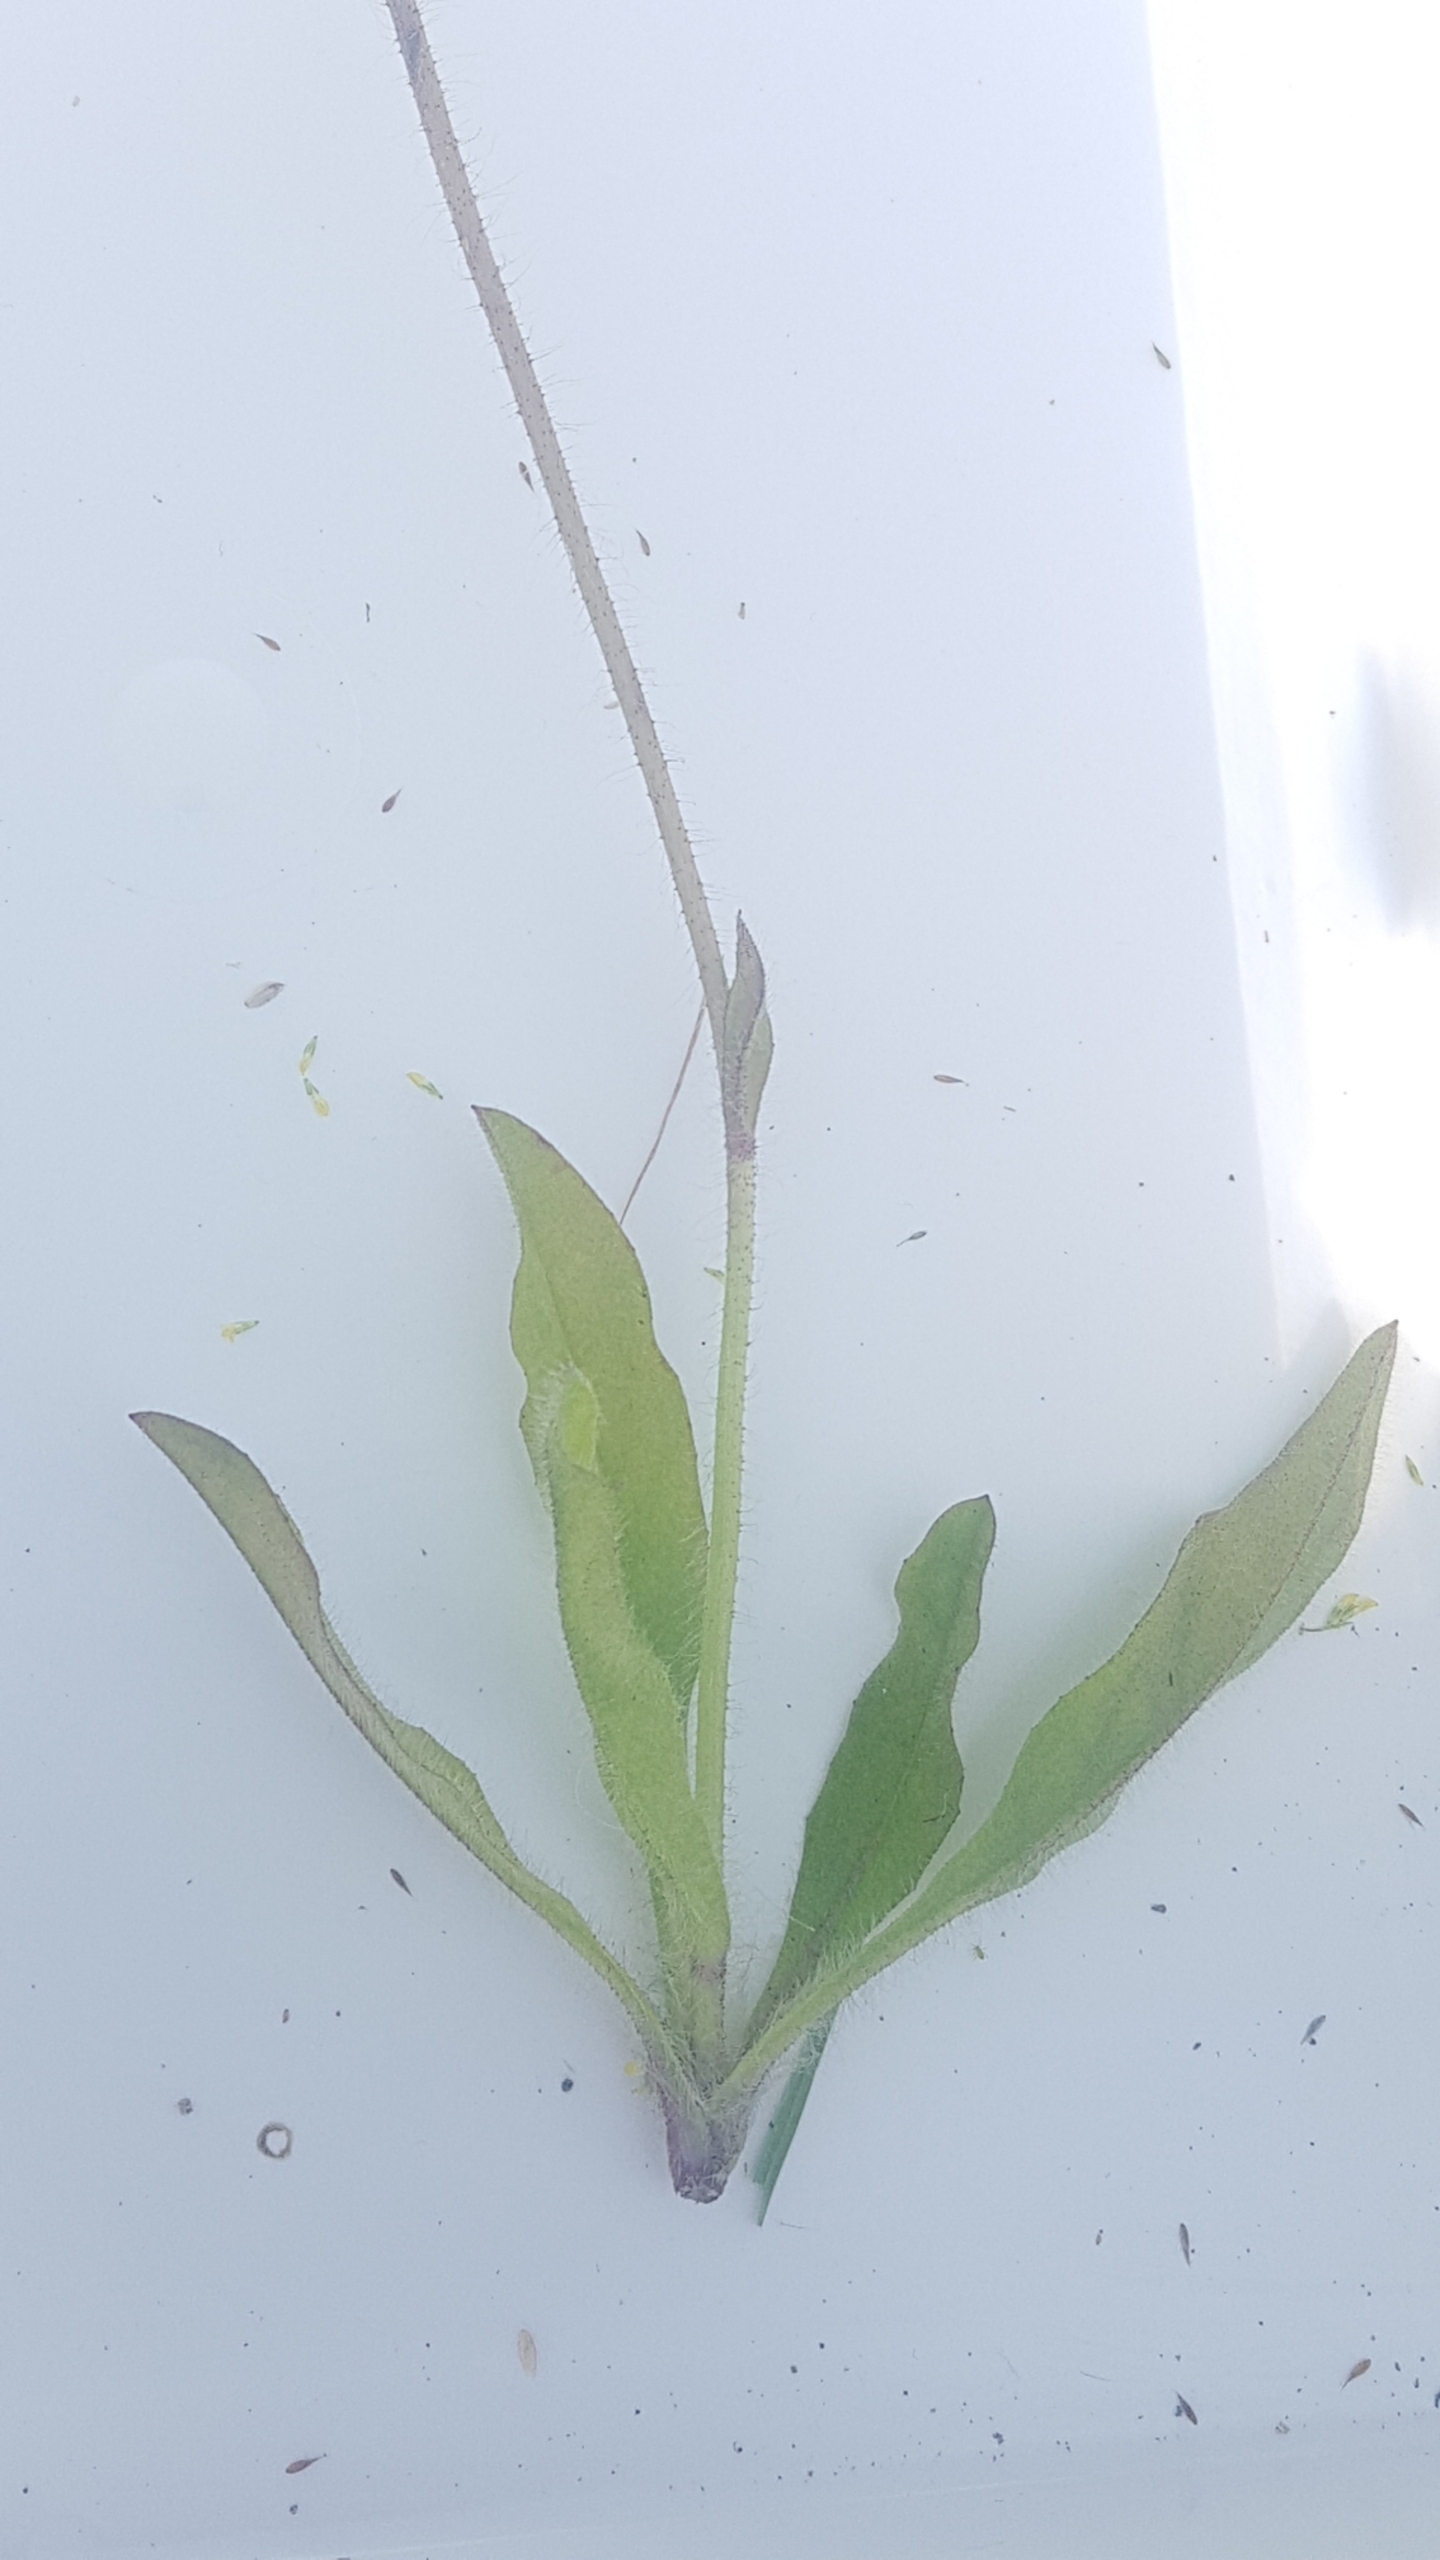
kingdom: Plantae
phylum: Tracheophyta
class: Magnoliopsida
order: Asterales
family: Asteraceae
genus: Pilosella
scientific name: Pilosella aurantiaca
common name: Pomerans-høgeurt
